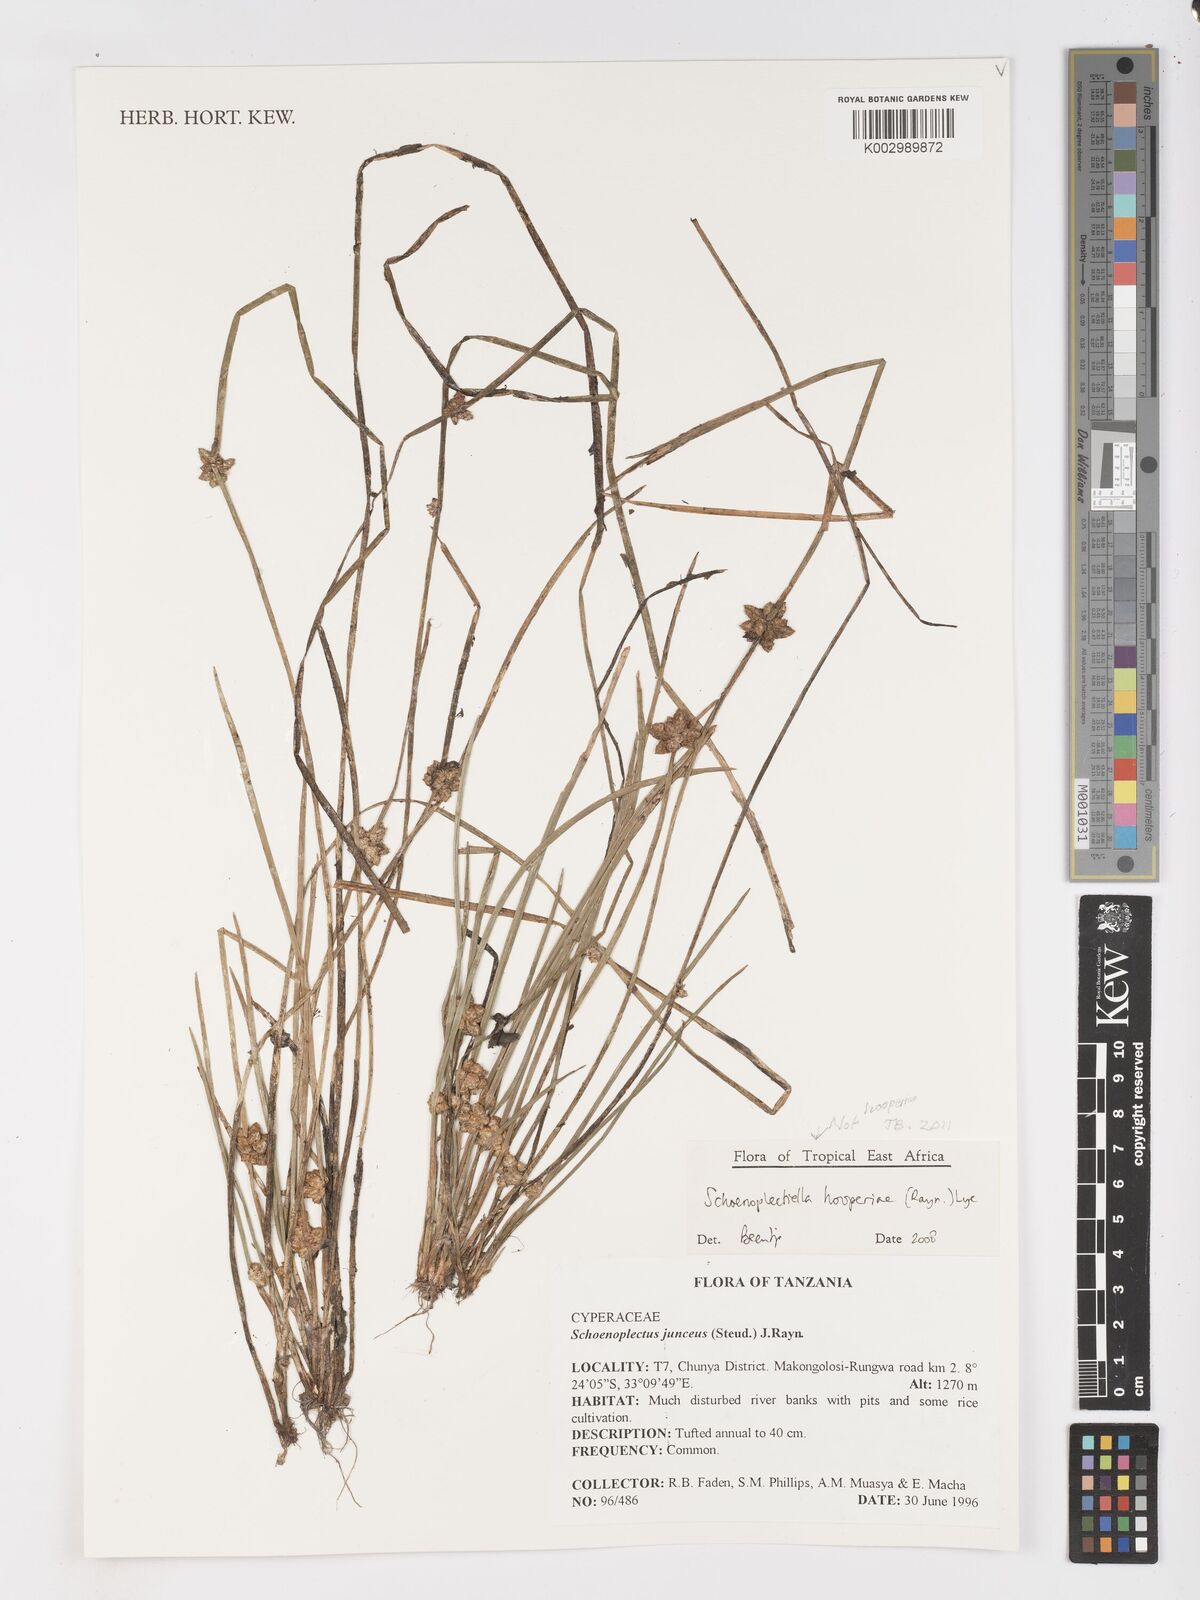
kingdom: Plantae
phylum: Tracheophyta
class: Liliopsida
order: Poales
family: Cyperaceae
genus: Schoenoplectiella
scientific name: Schoenoplectiella hooperae
